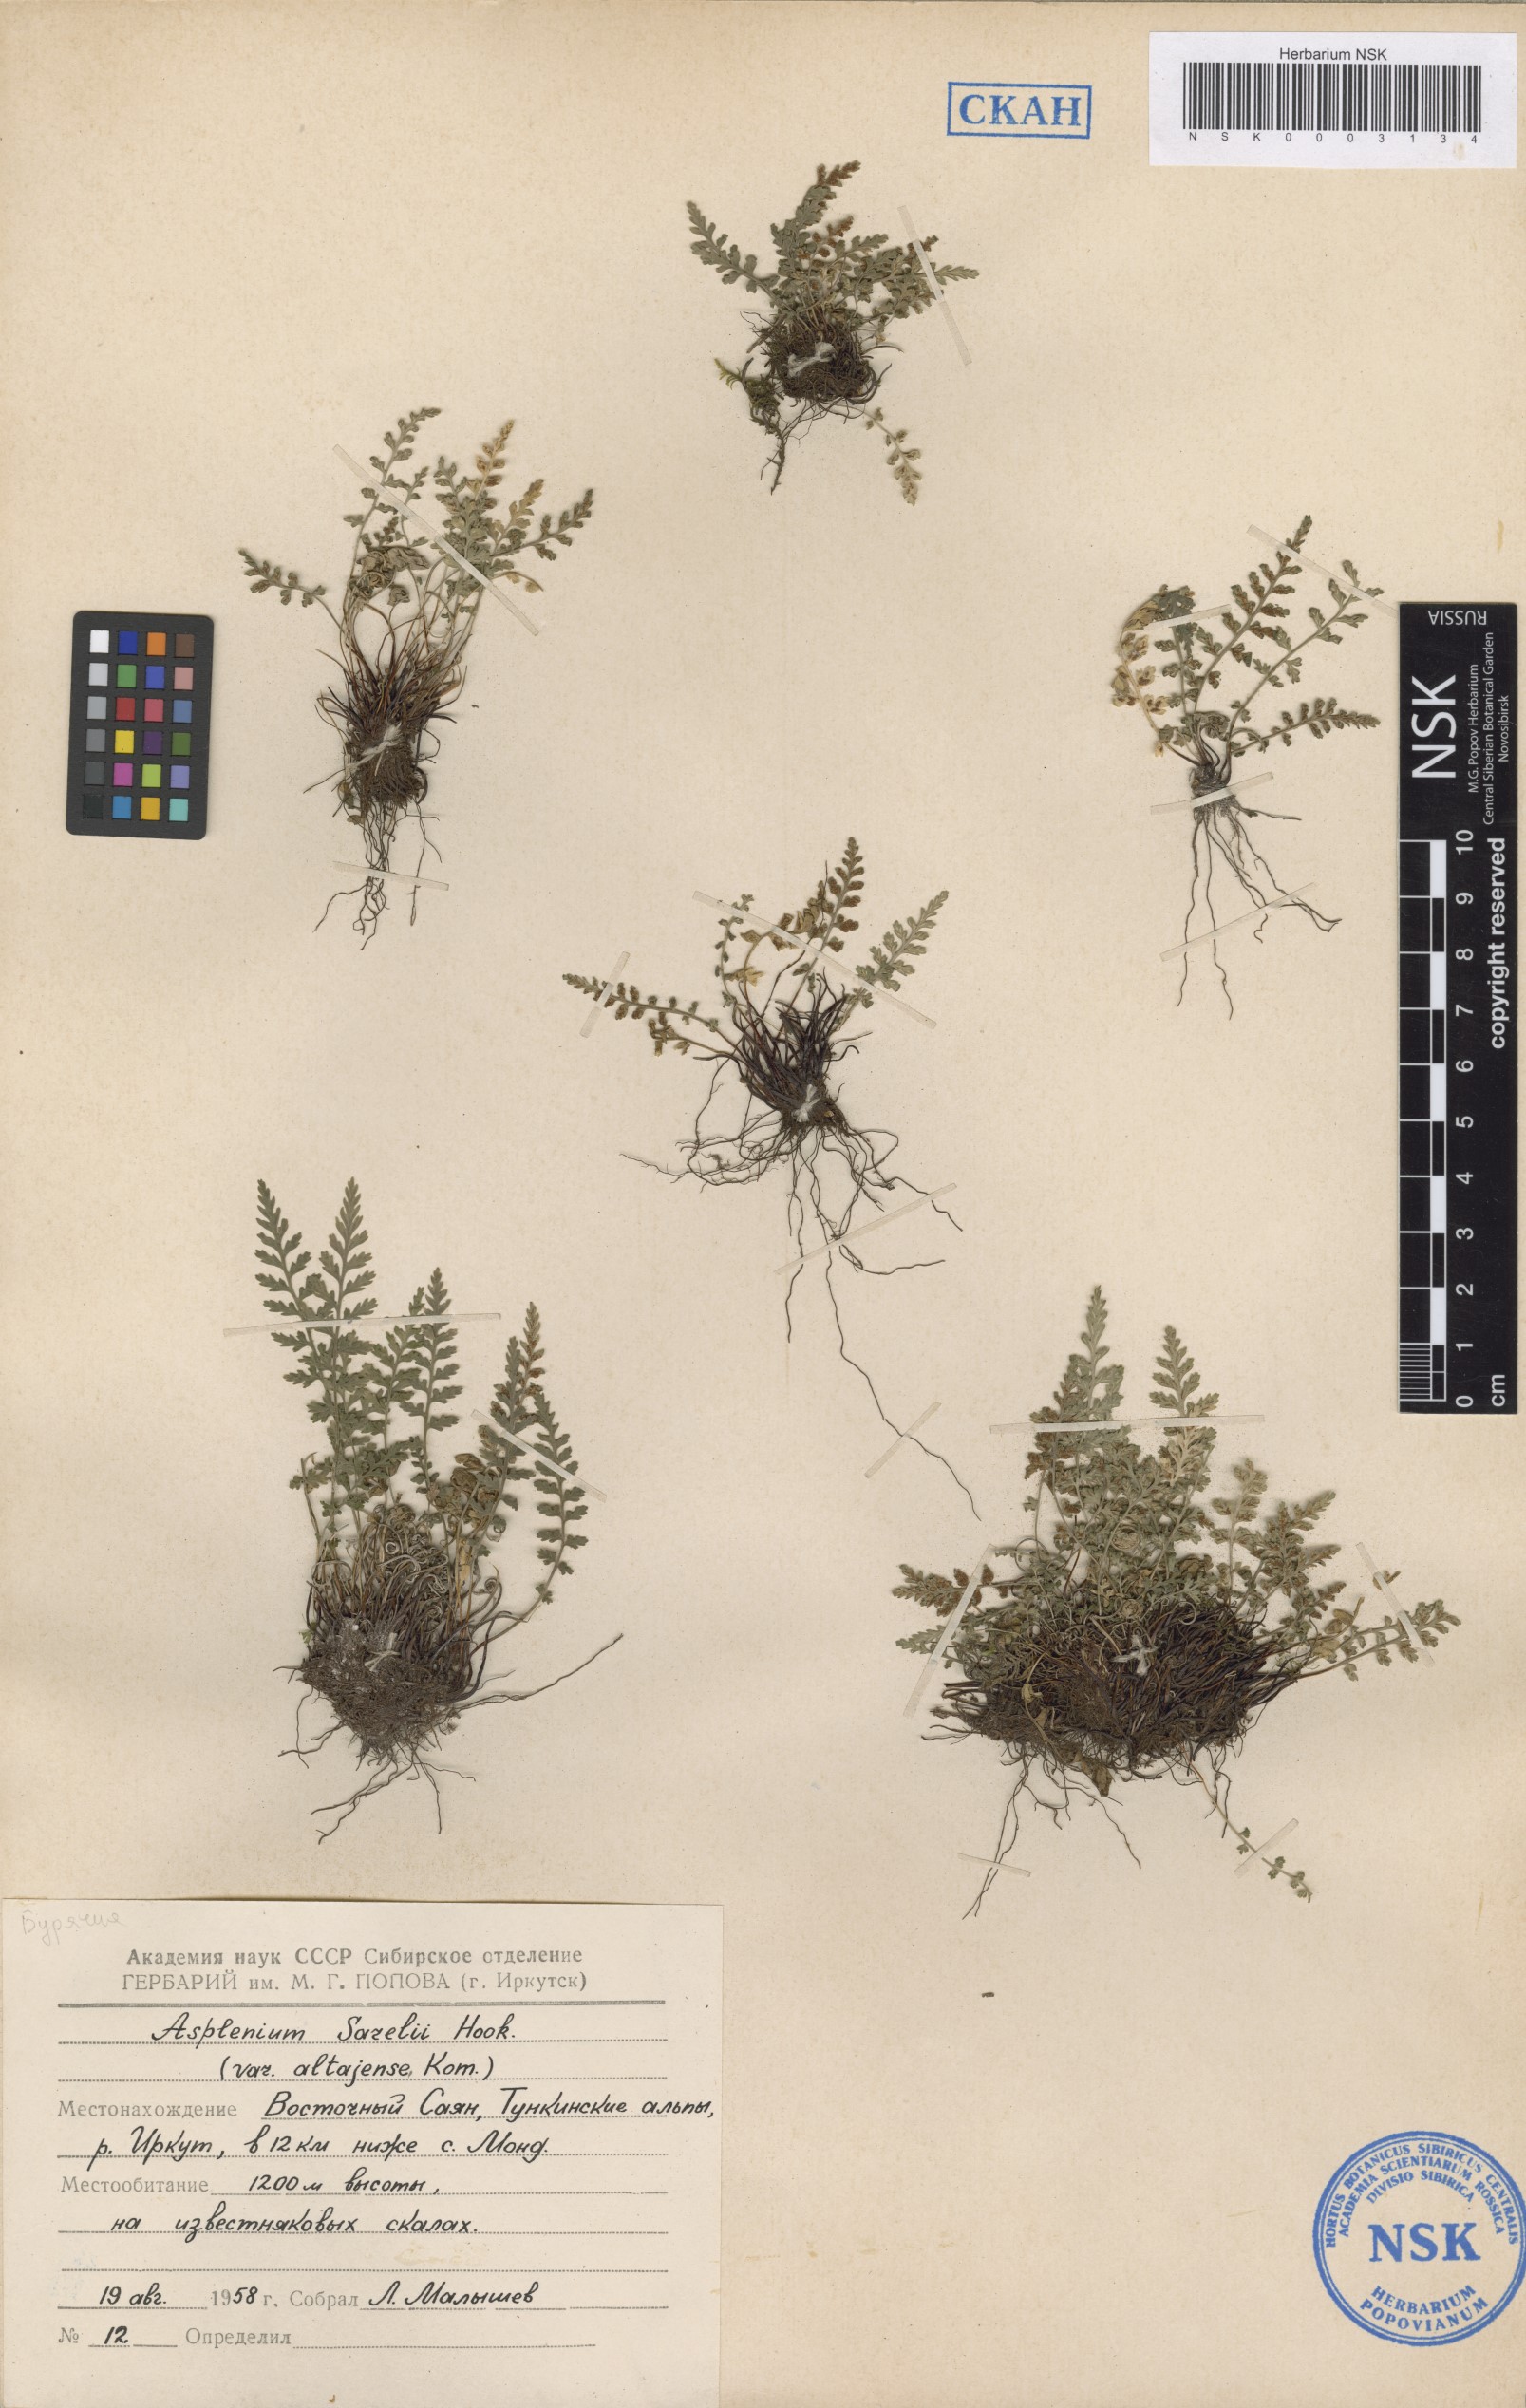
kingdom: Plantae
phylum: Tracheophyta
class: Polypodiopsida
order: Polypodiales
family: Aspleniaceae
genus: Asplenium
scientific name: Asplenium altajense
